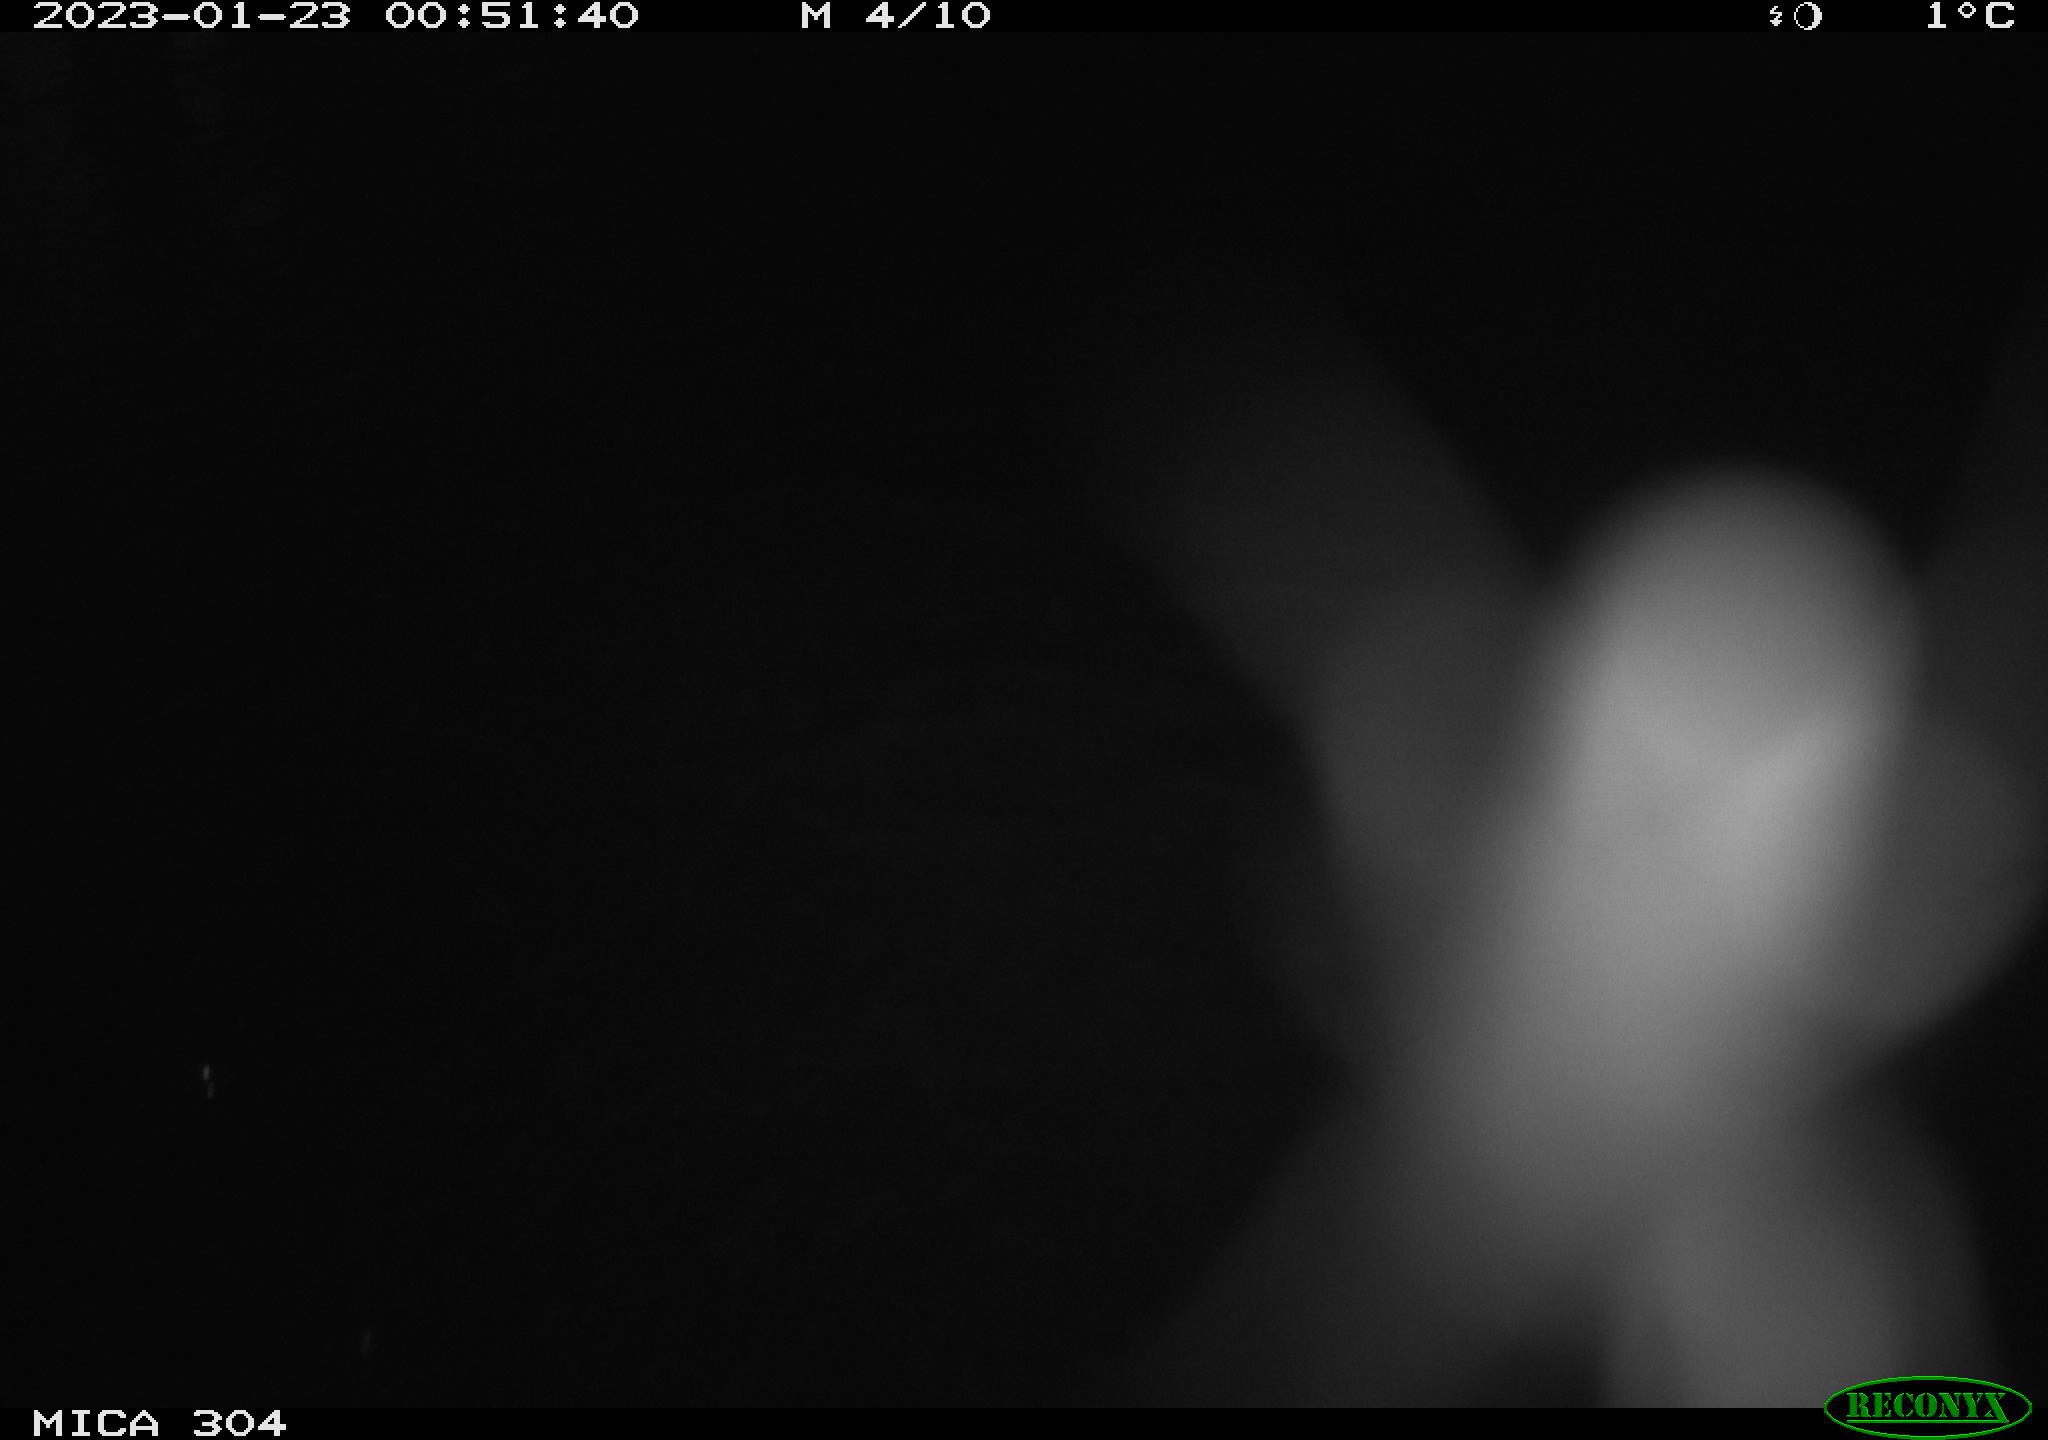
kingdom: Animalia
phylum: Chordata
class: Mammalia
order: Rodentia
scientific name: Rodentia
